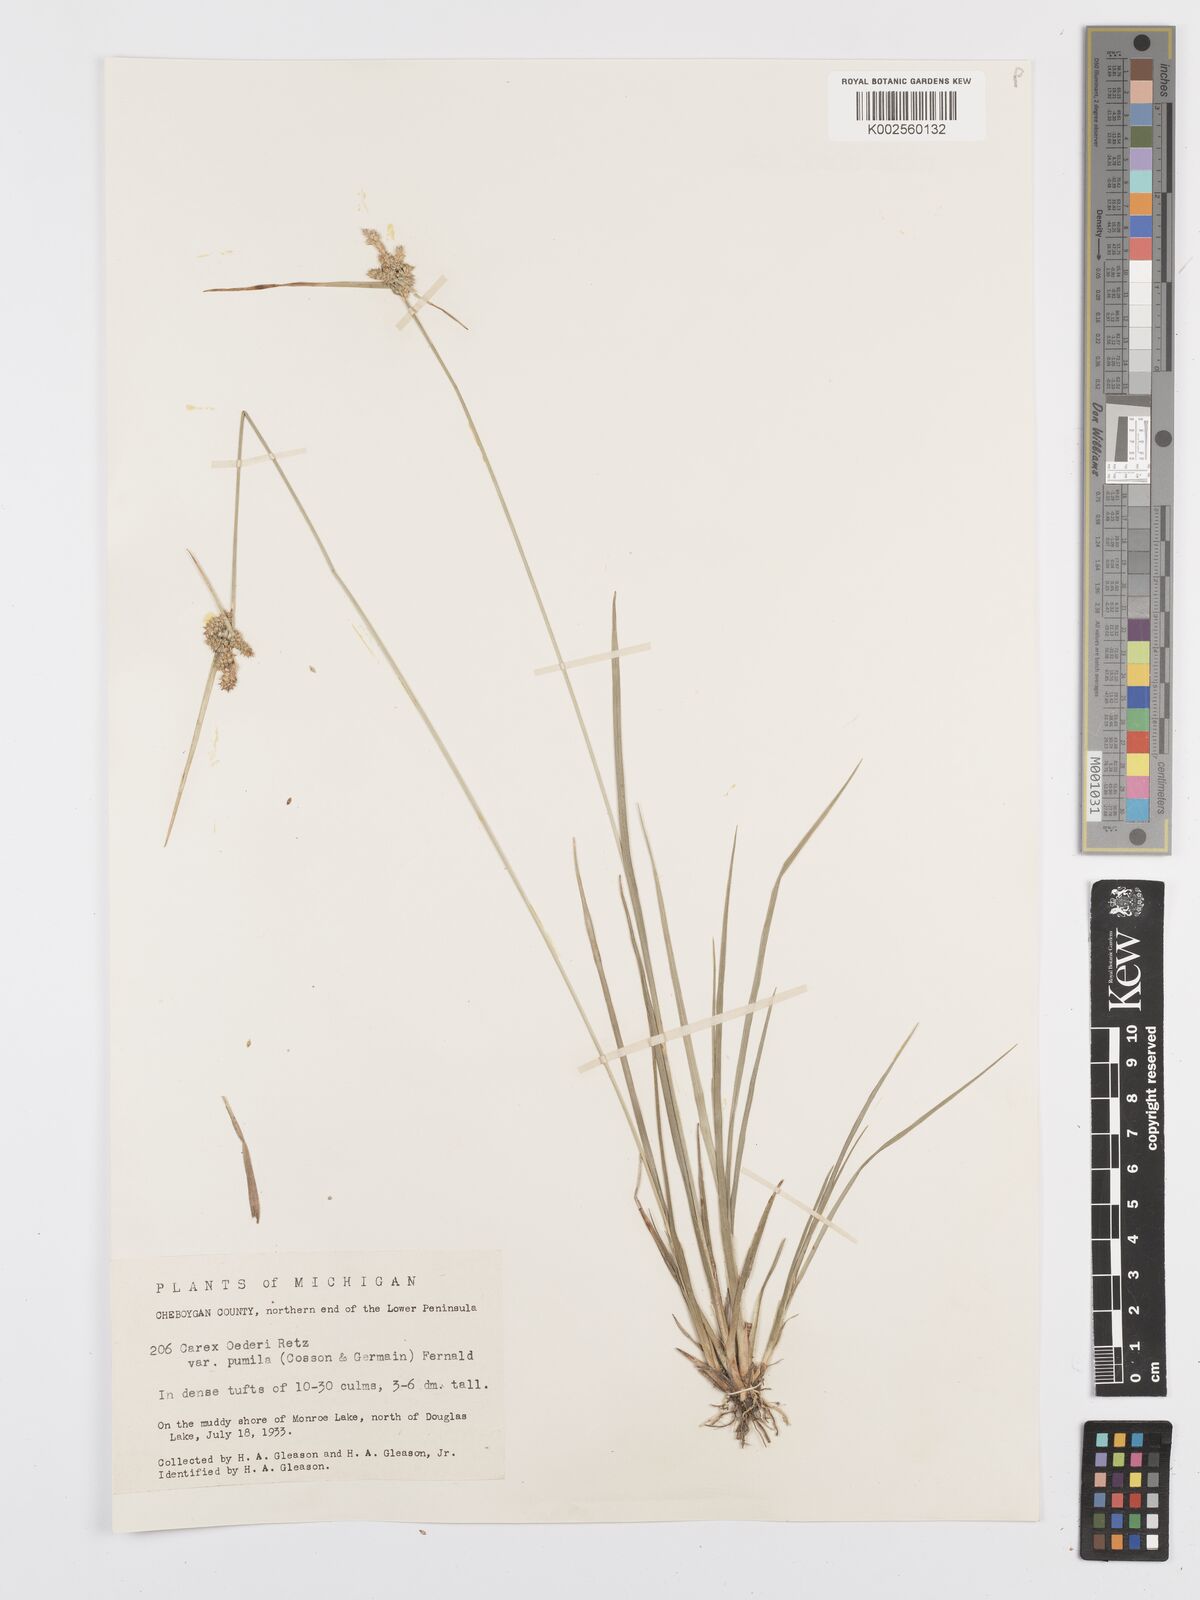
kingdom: Plantae
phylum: Tracheophyta
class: Liliopsida
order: Poales
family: Cyperaceae
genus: Carex
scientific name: Carex oederi
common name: Common & small-fruited yellow-sedge
